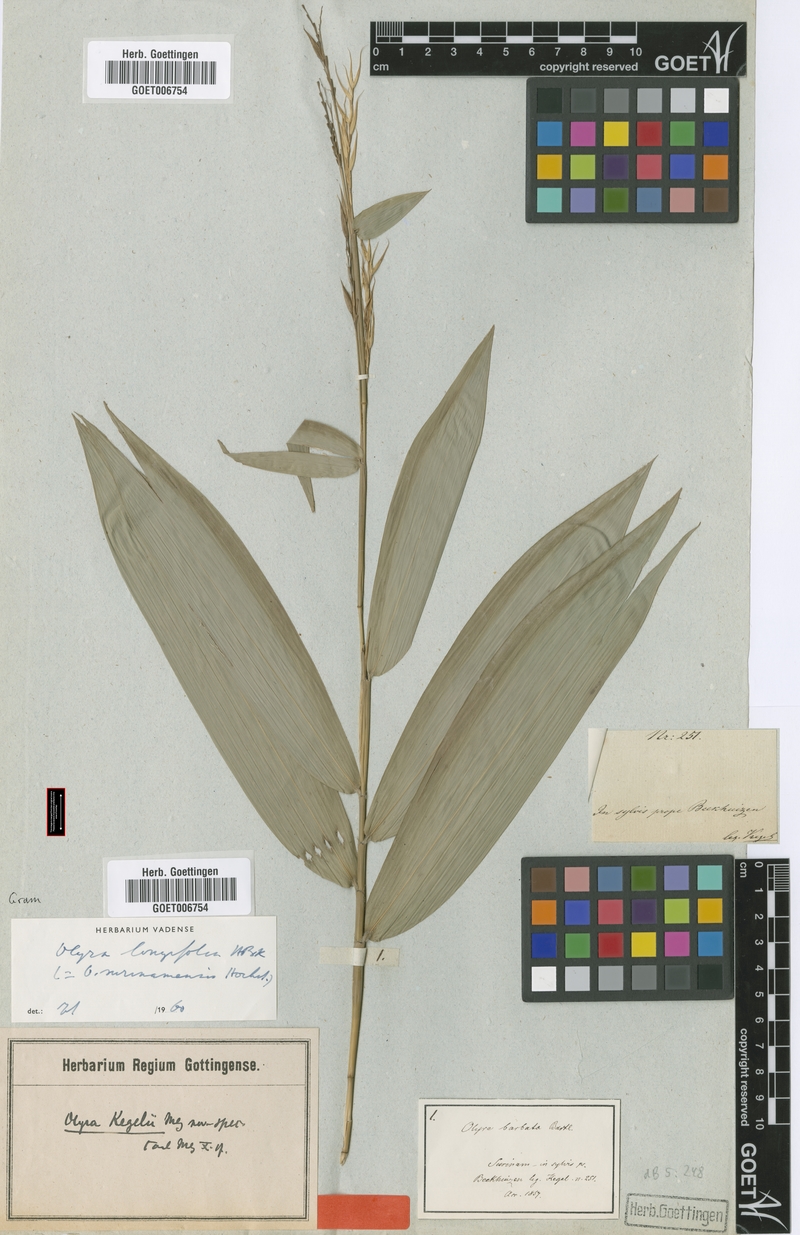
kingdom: Plantae
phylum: Tracheophyta
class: Liliopsida
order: Poales
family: Poaceae
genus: Olyra
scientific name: Olyra longifolia
